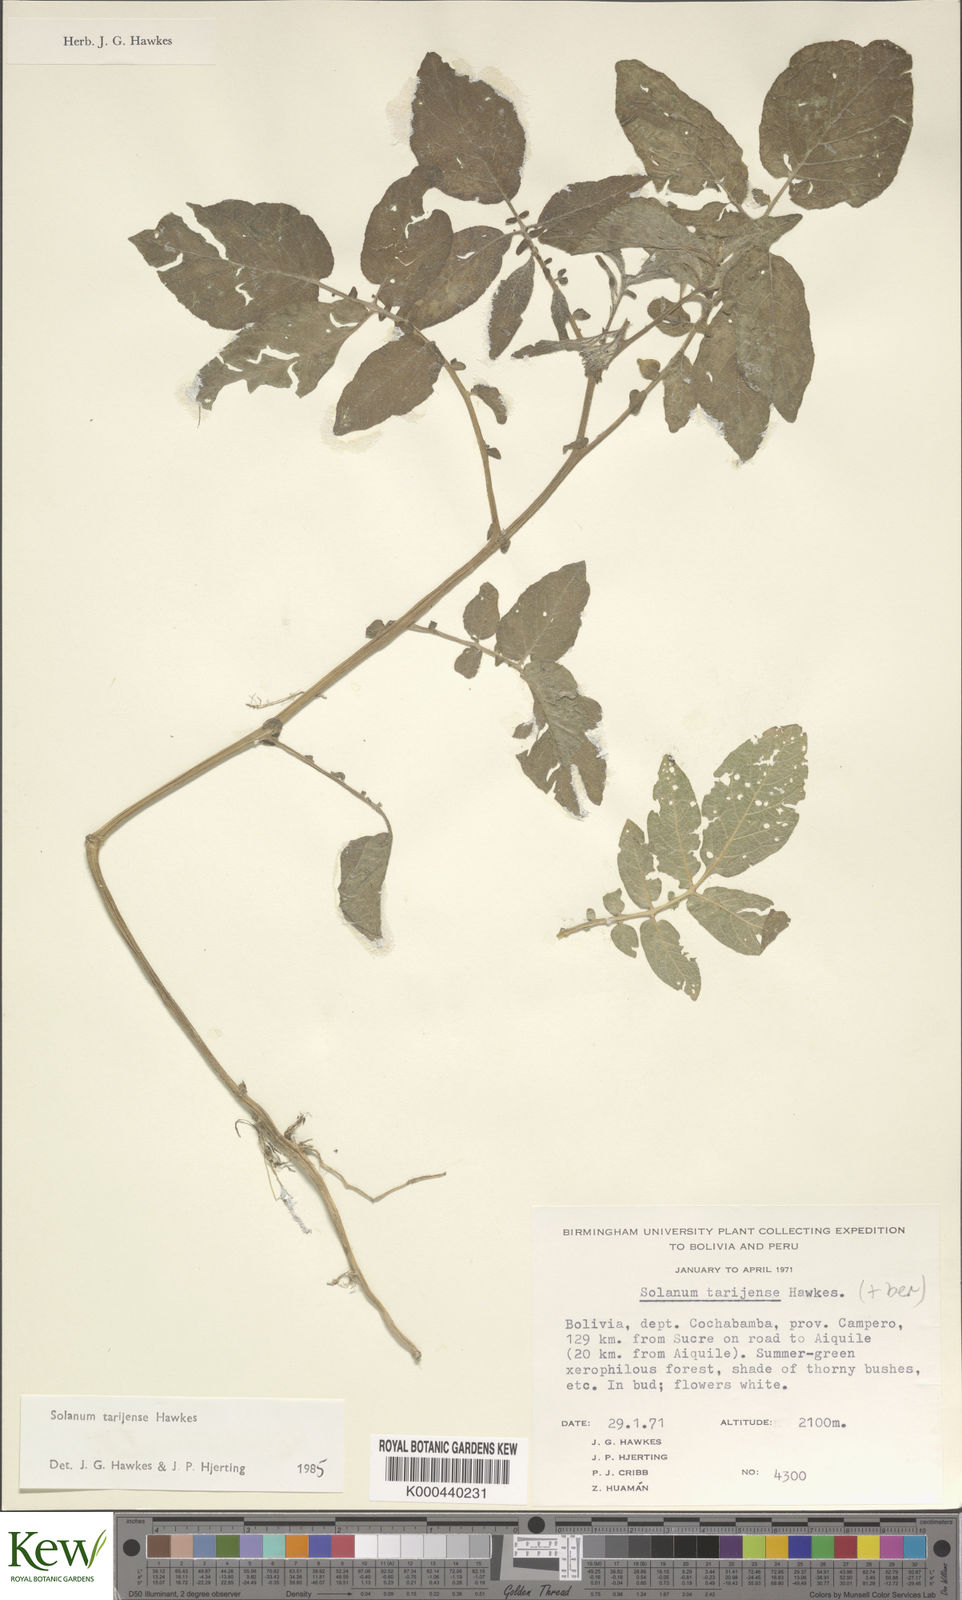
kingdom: Plantae
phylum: Tracheophyta
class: Magnoliopsida
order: Solanales
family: Solanaceae
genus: Solanum
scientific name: Solanum tarijense
